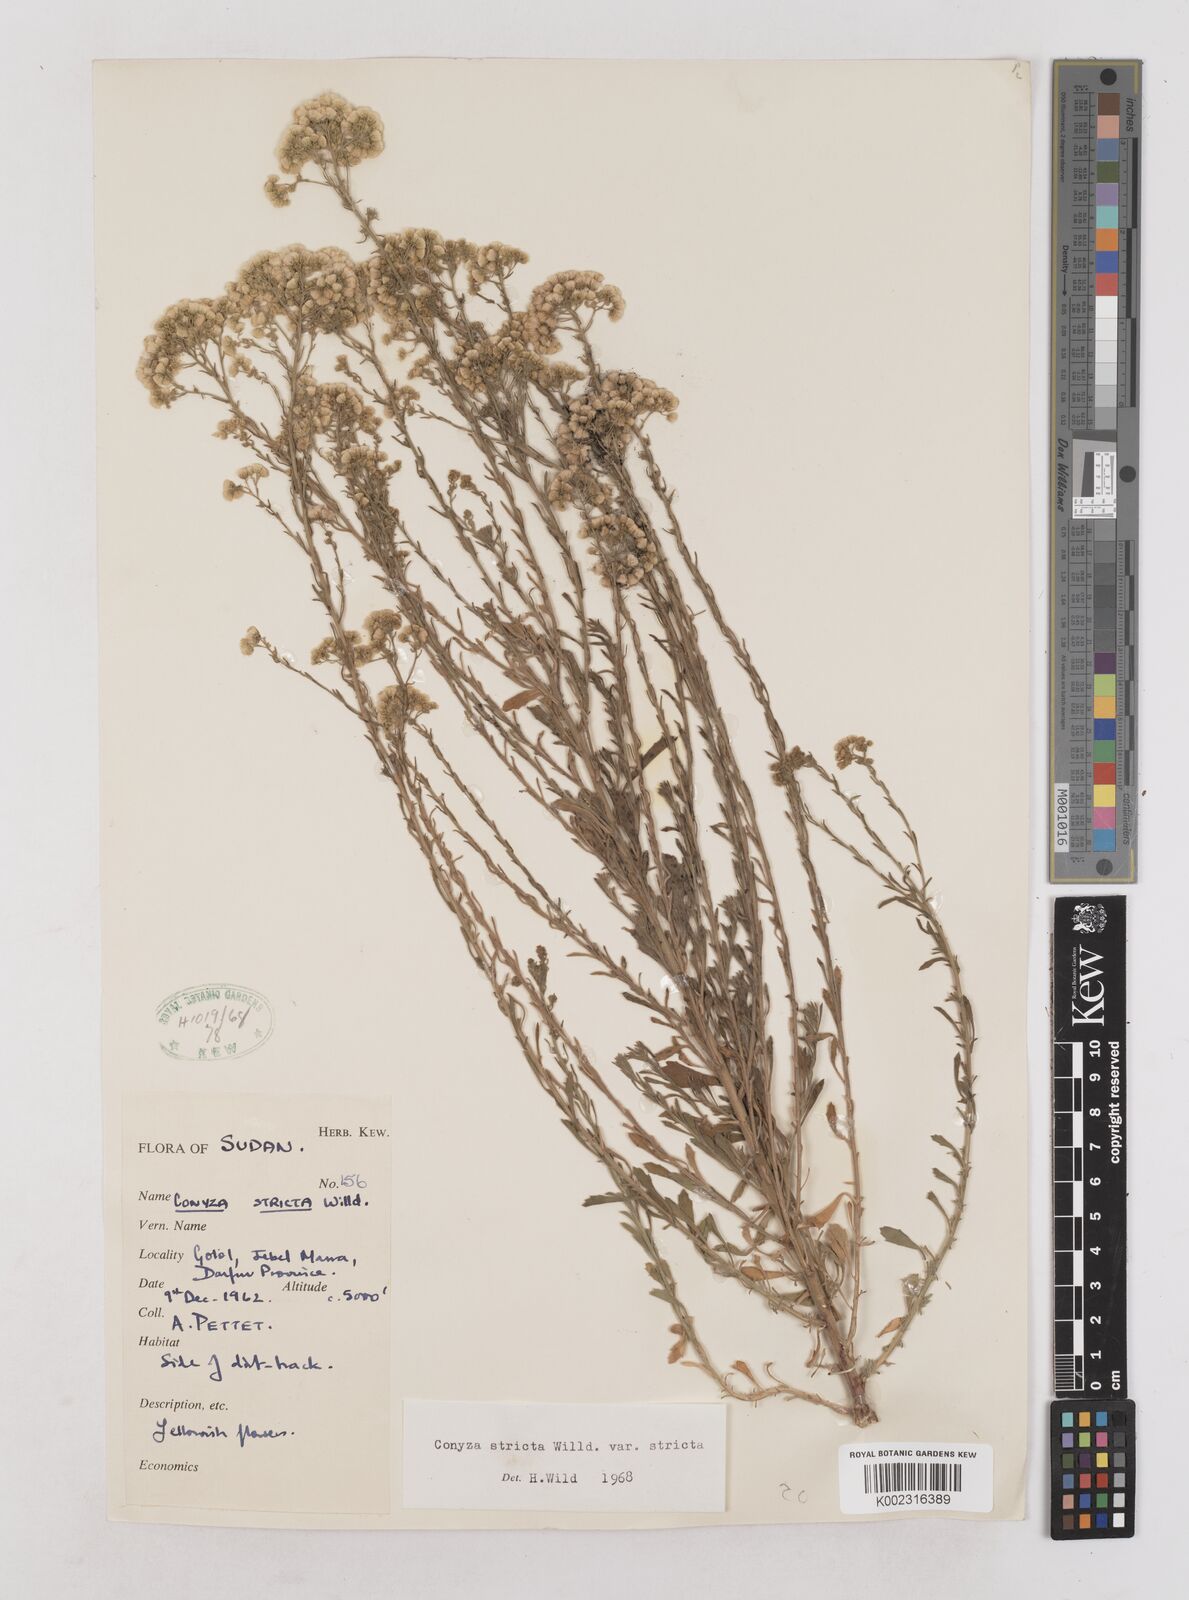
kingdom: Plantae
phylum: Tracheophyta
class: Magnoliopsida
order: Asterales
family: Asteraceae
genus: Nidorella
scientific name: Nidorella triloba
